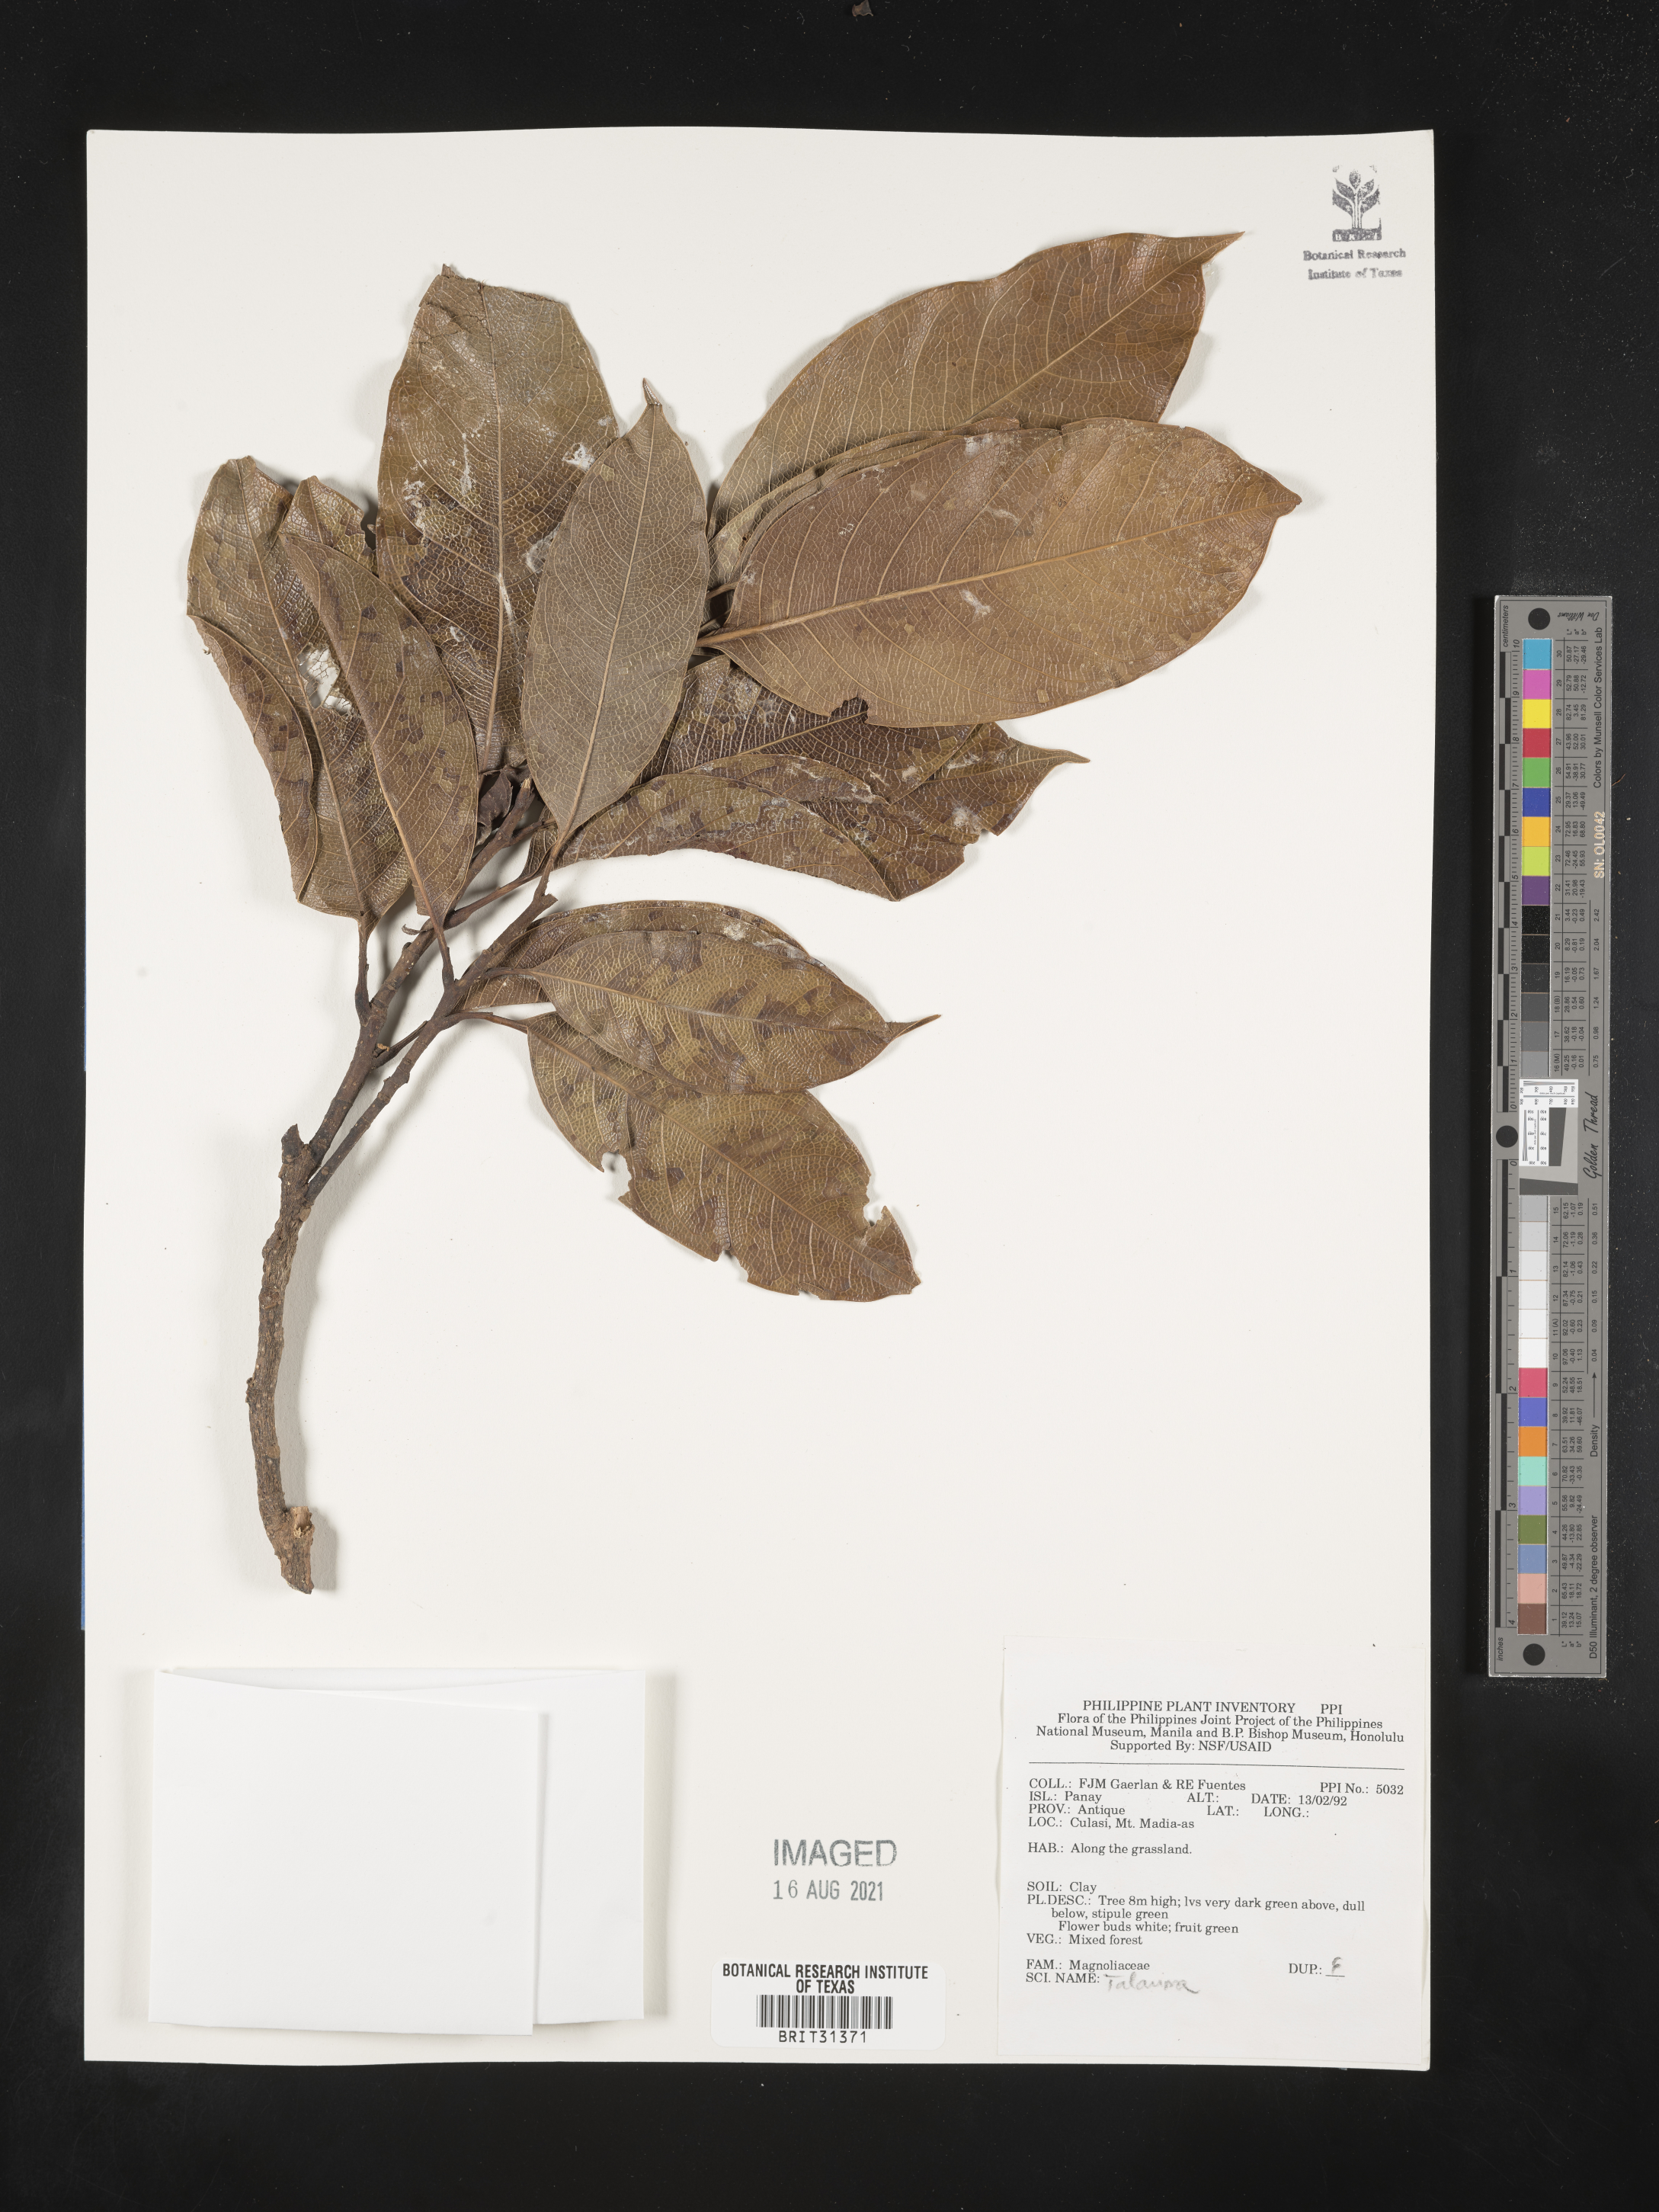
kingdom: Plantae
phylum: Tracheophyta
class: Magnoliopsida
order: Magnoliales
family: Magnoliaceae
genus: Magnolia
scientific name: Magnolia Talauma spec
